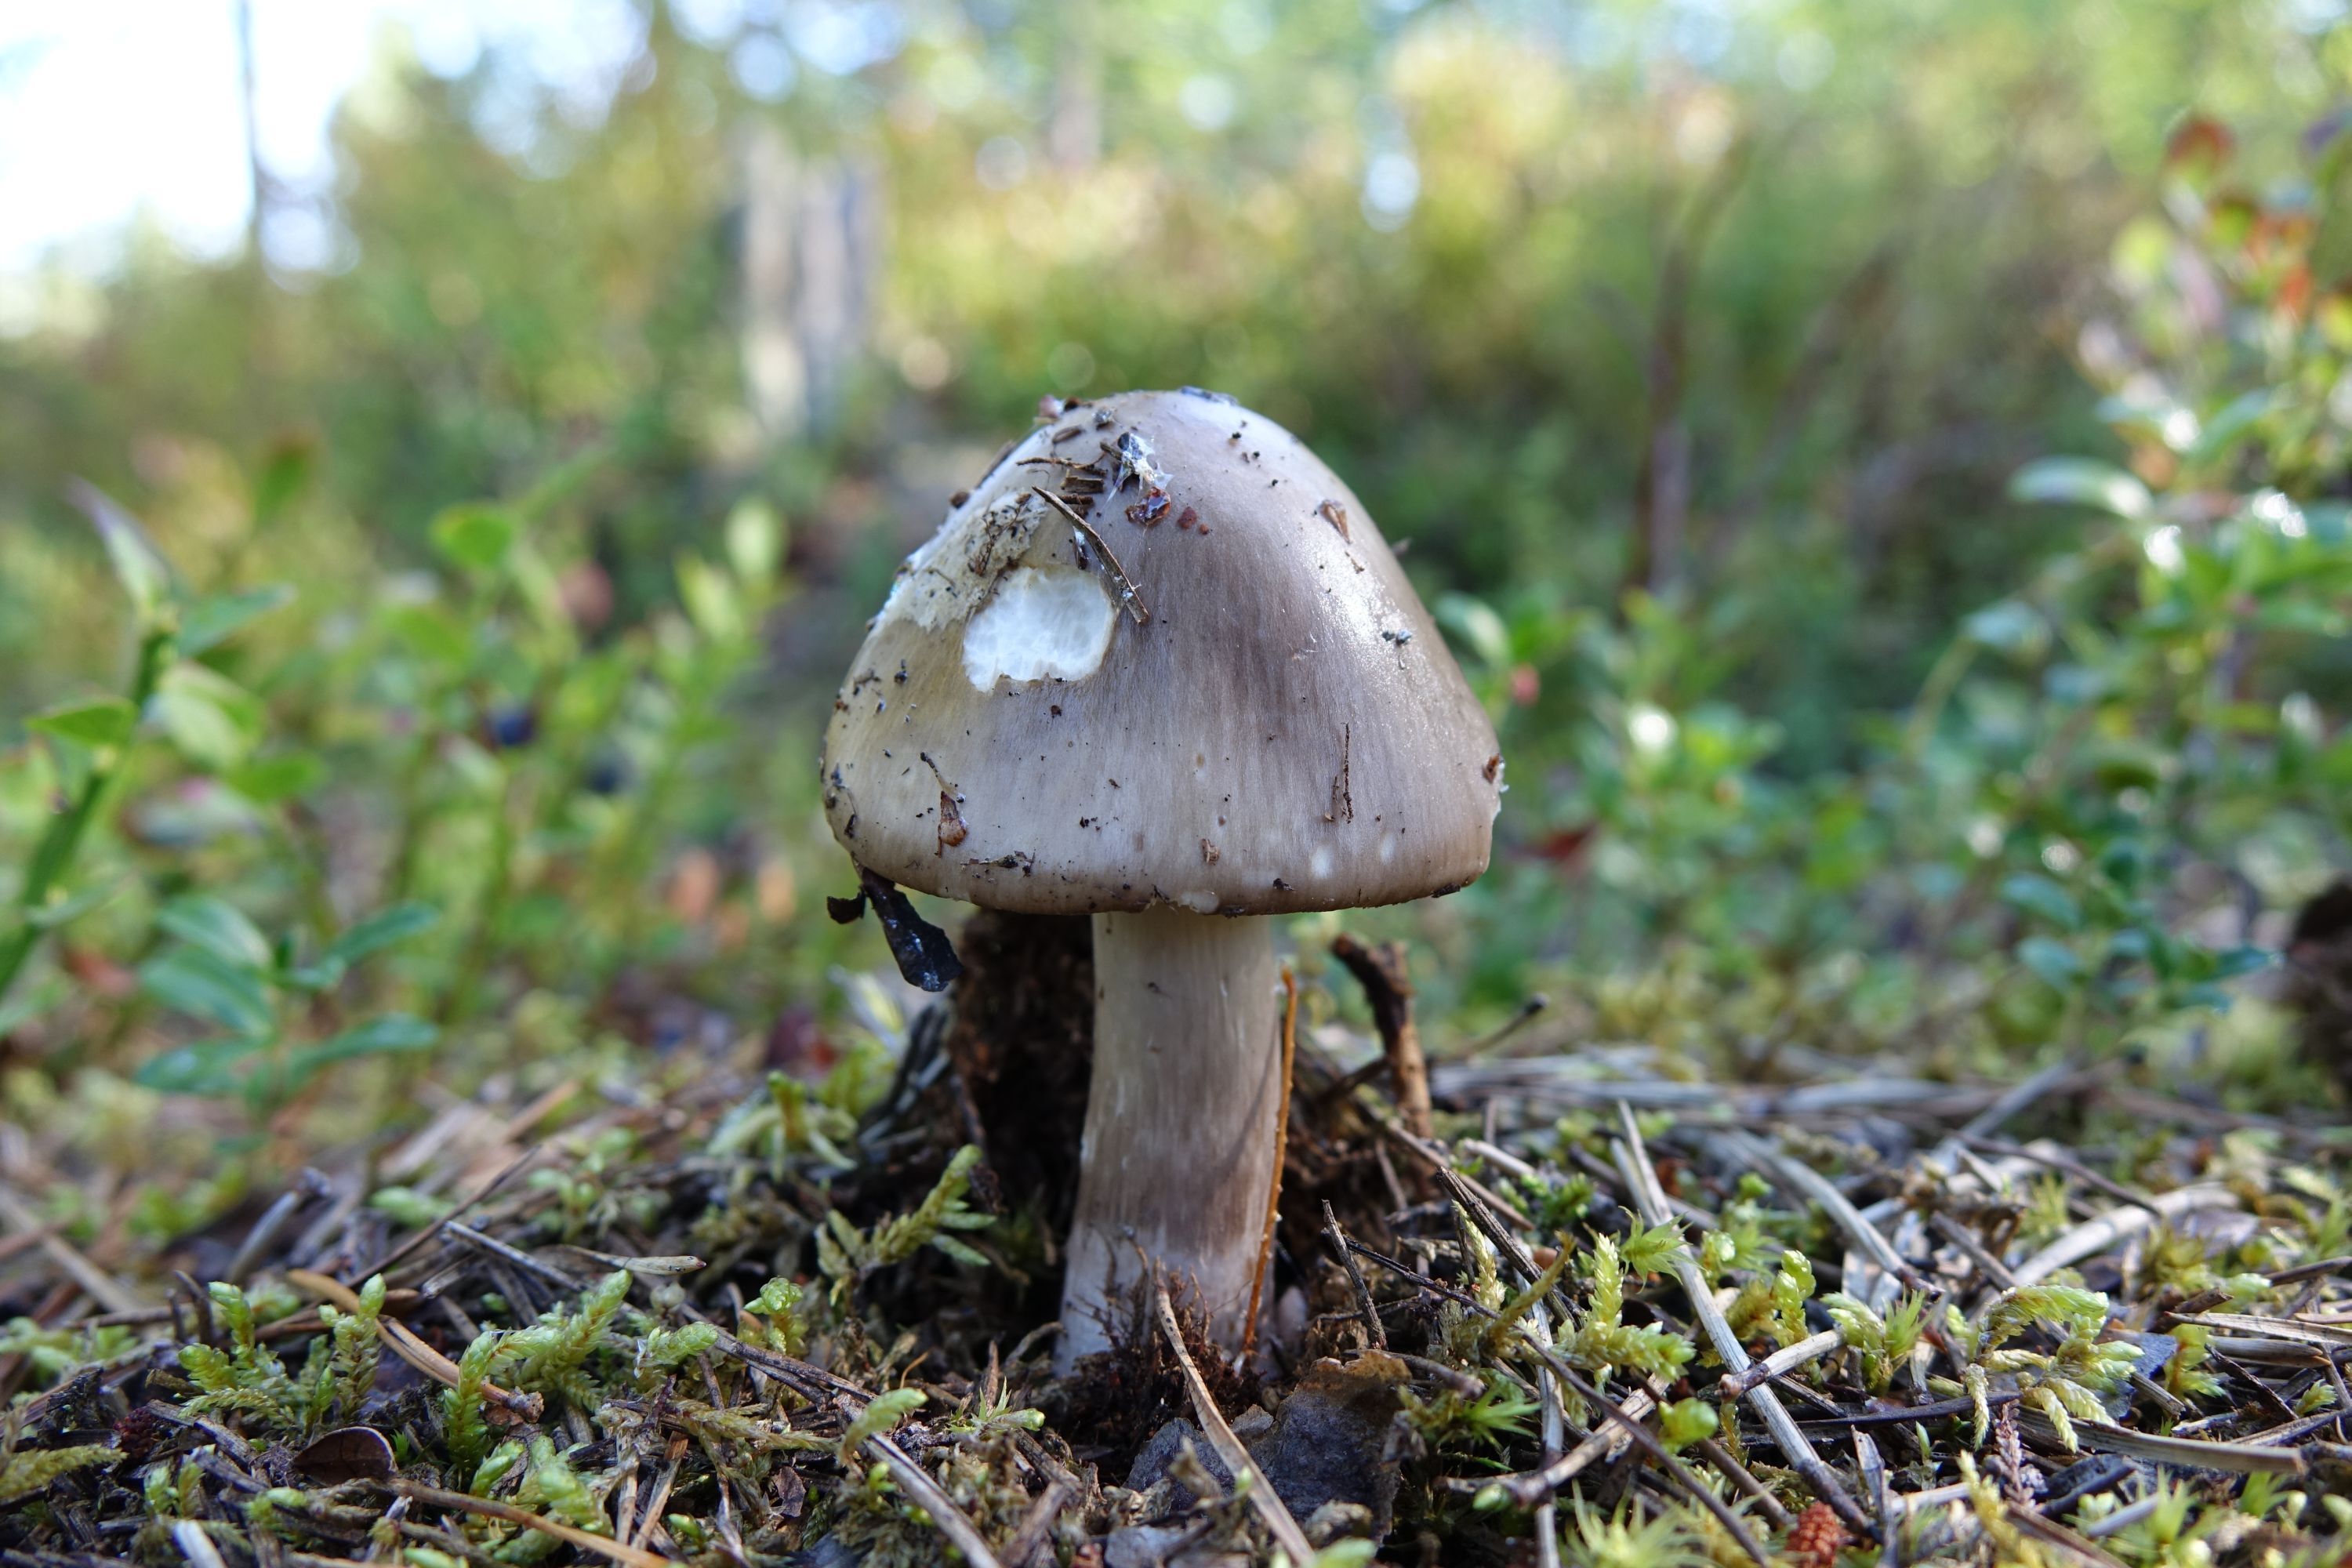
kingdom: Fungi
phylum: Basidiomycota
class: Agaricomycetes
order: Agaricales
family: Amanitaceae
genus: Amanita
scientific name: Amanita porphyria
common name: Grey veiled amanita
